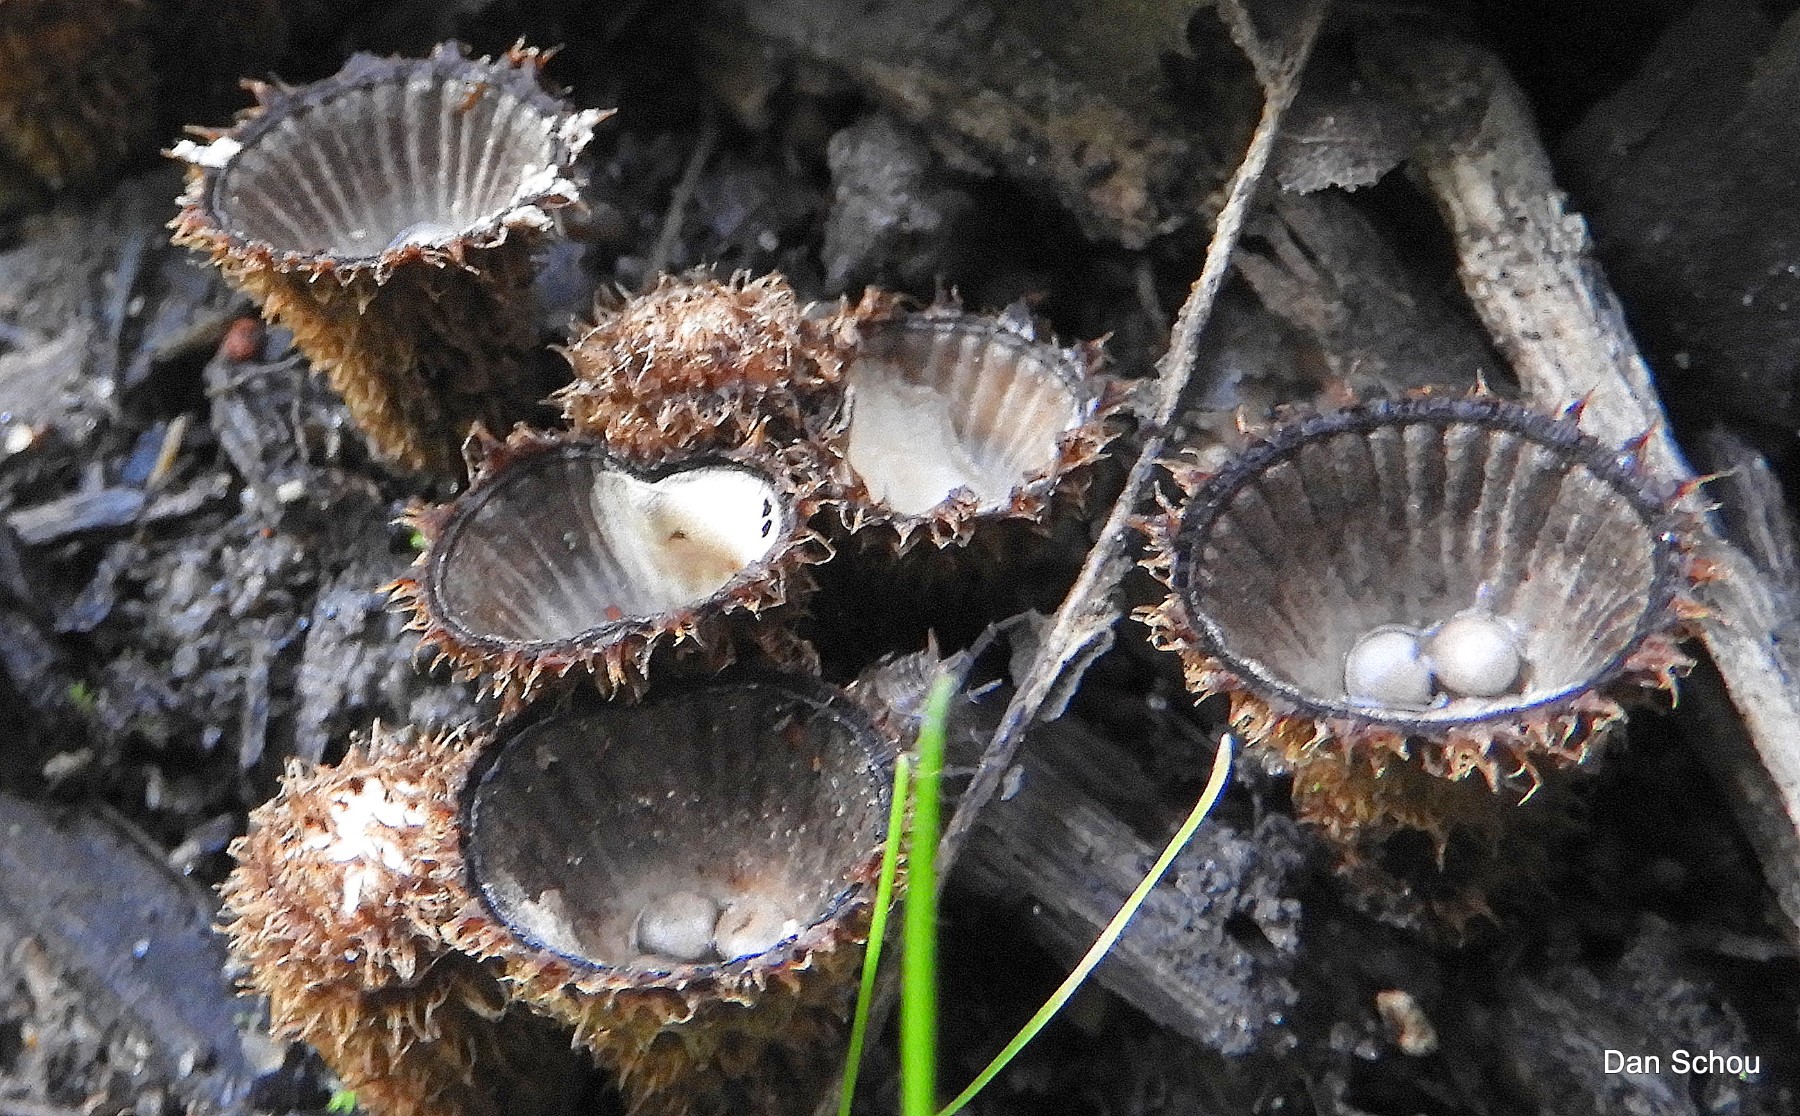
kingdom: Fungi
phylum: Basidiomycota
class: Agaricomycetes
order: Agaricales
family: Agaricaceae
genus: Cyathus
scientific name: Cyathus striatus
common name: stribet redesvamp
